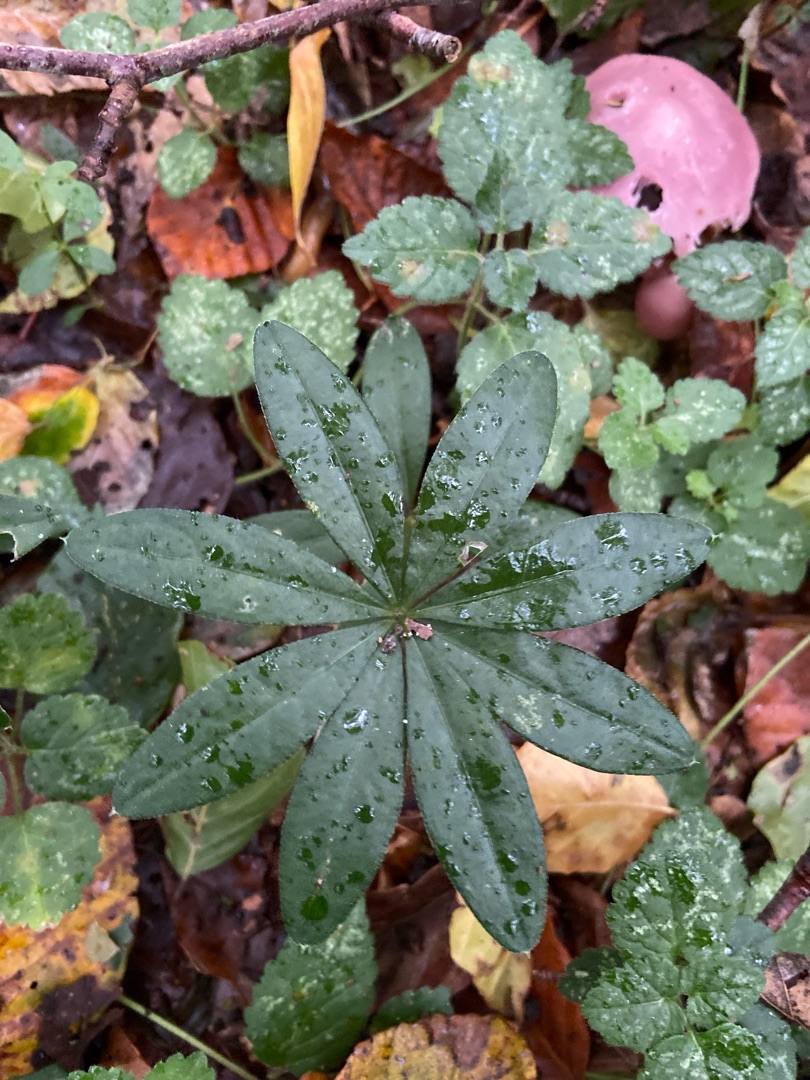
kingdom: Plantae
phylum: Tracheophyta
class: Magnoliopsida
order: Gentianales
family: Rubiaceae
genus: Galium
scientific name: Galium odoratum
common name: Skovmærke
